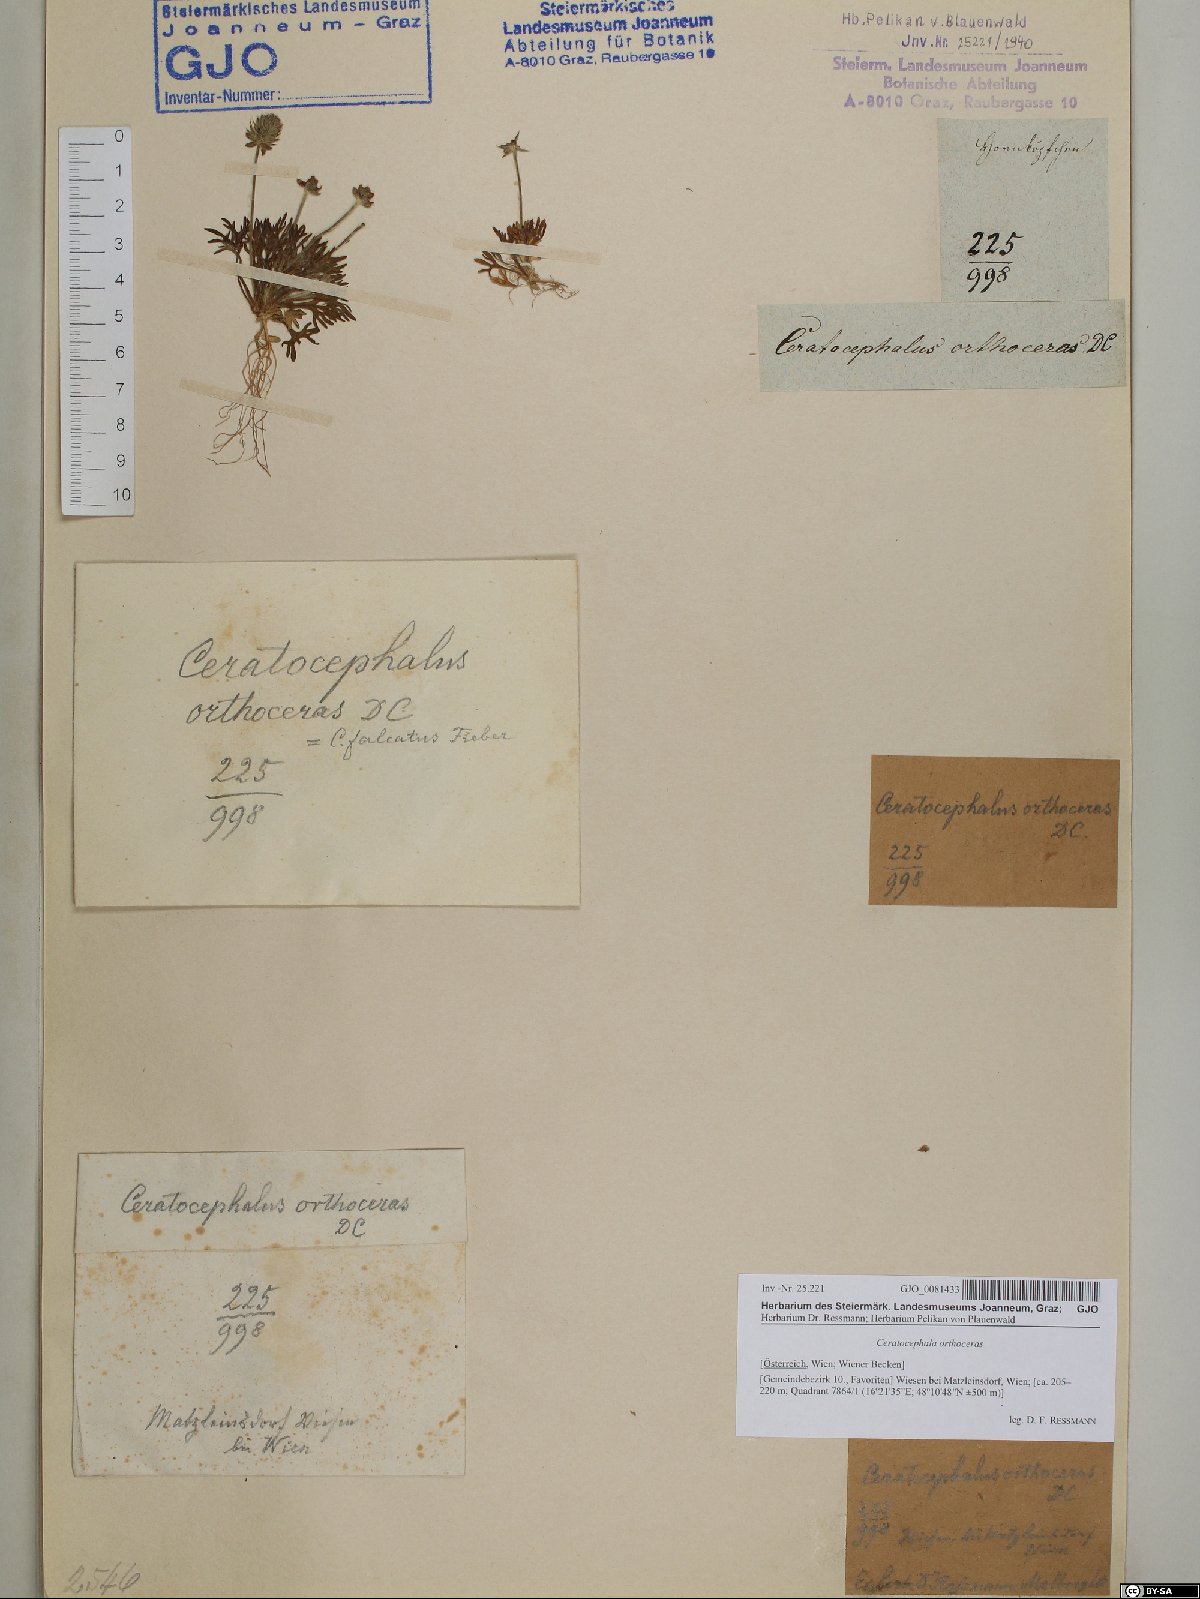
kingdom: Plantae
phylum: Tracheophyta
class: Magnoliopsida
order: Ranunculales
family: Ranunculaceae
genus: Ceratocephala
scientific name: Ceratocephala orthoceras
